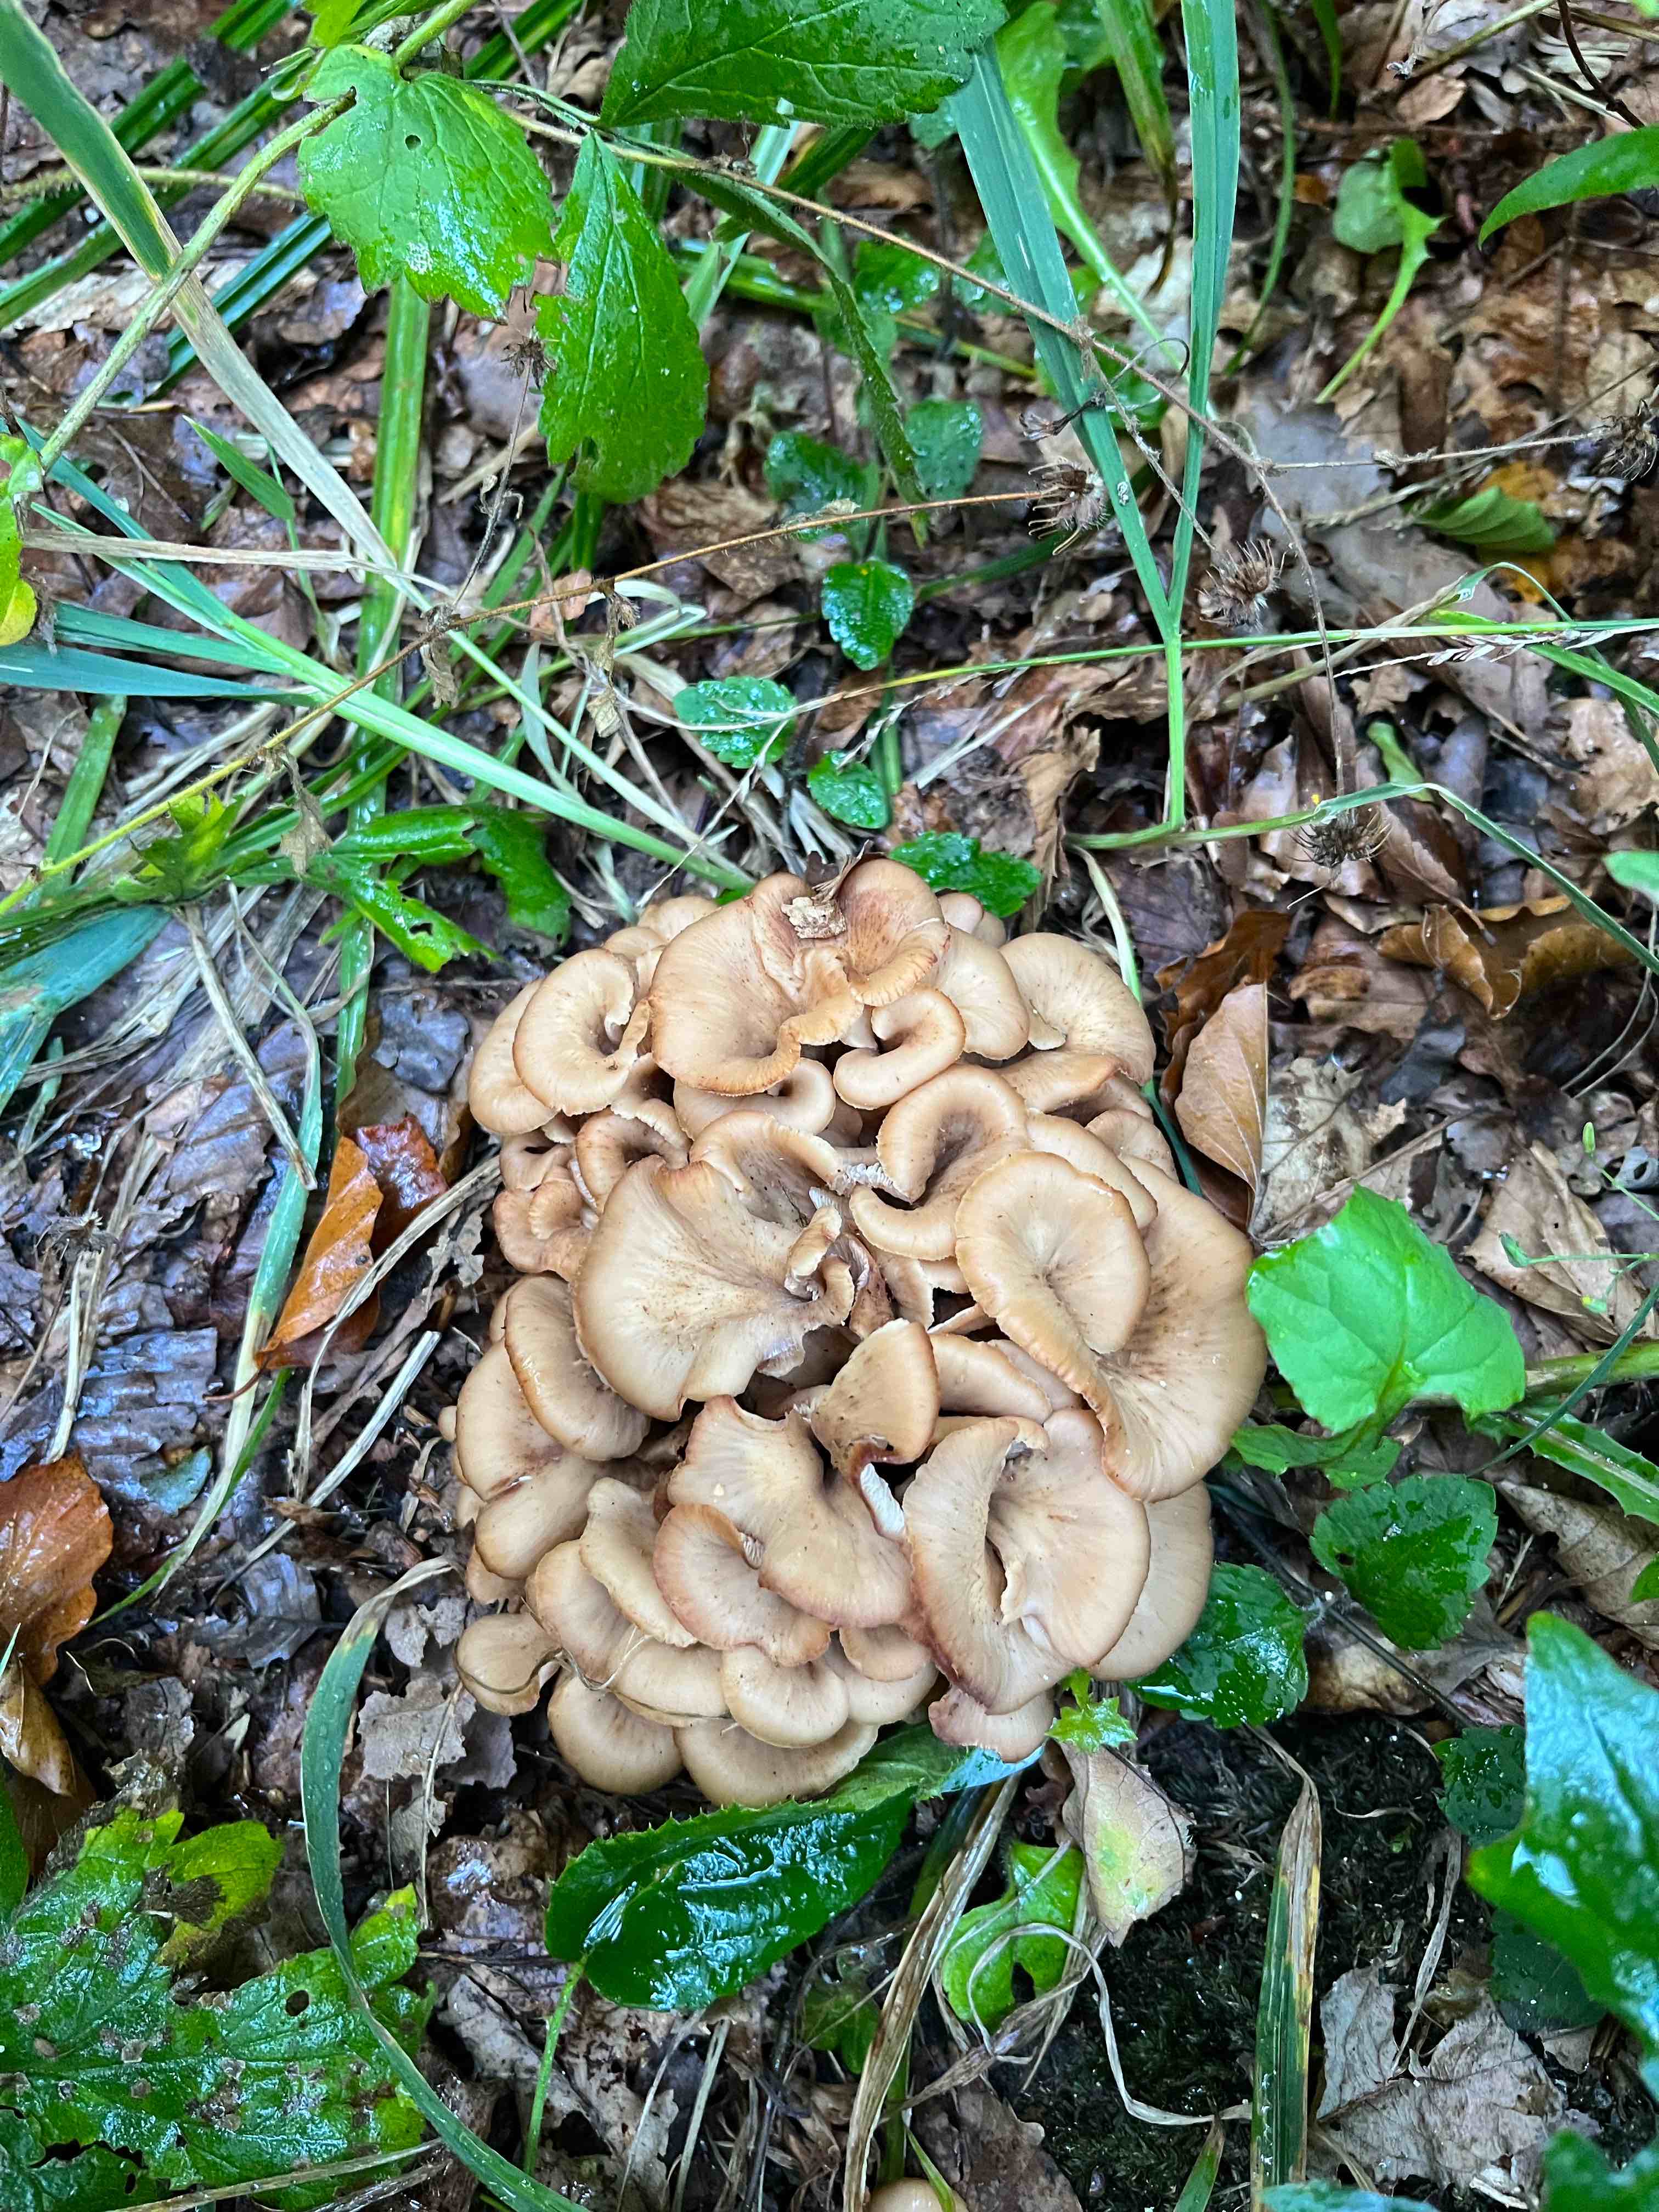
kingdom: Fungi
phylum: Basidiomycota
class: Agaricomycetes
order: Russulales
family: Auriscalpiaceae
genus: Lentinellus
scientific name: Lentinellus cochleatus
